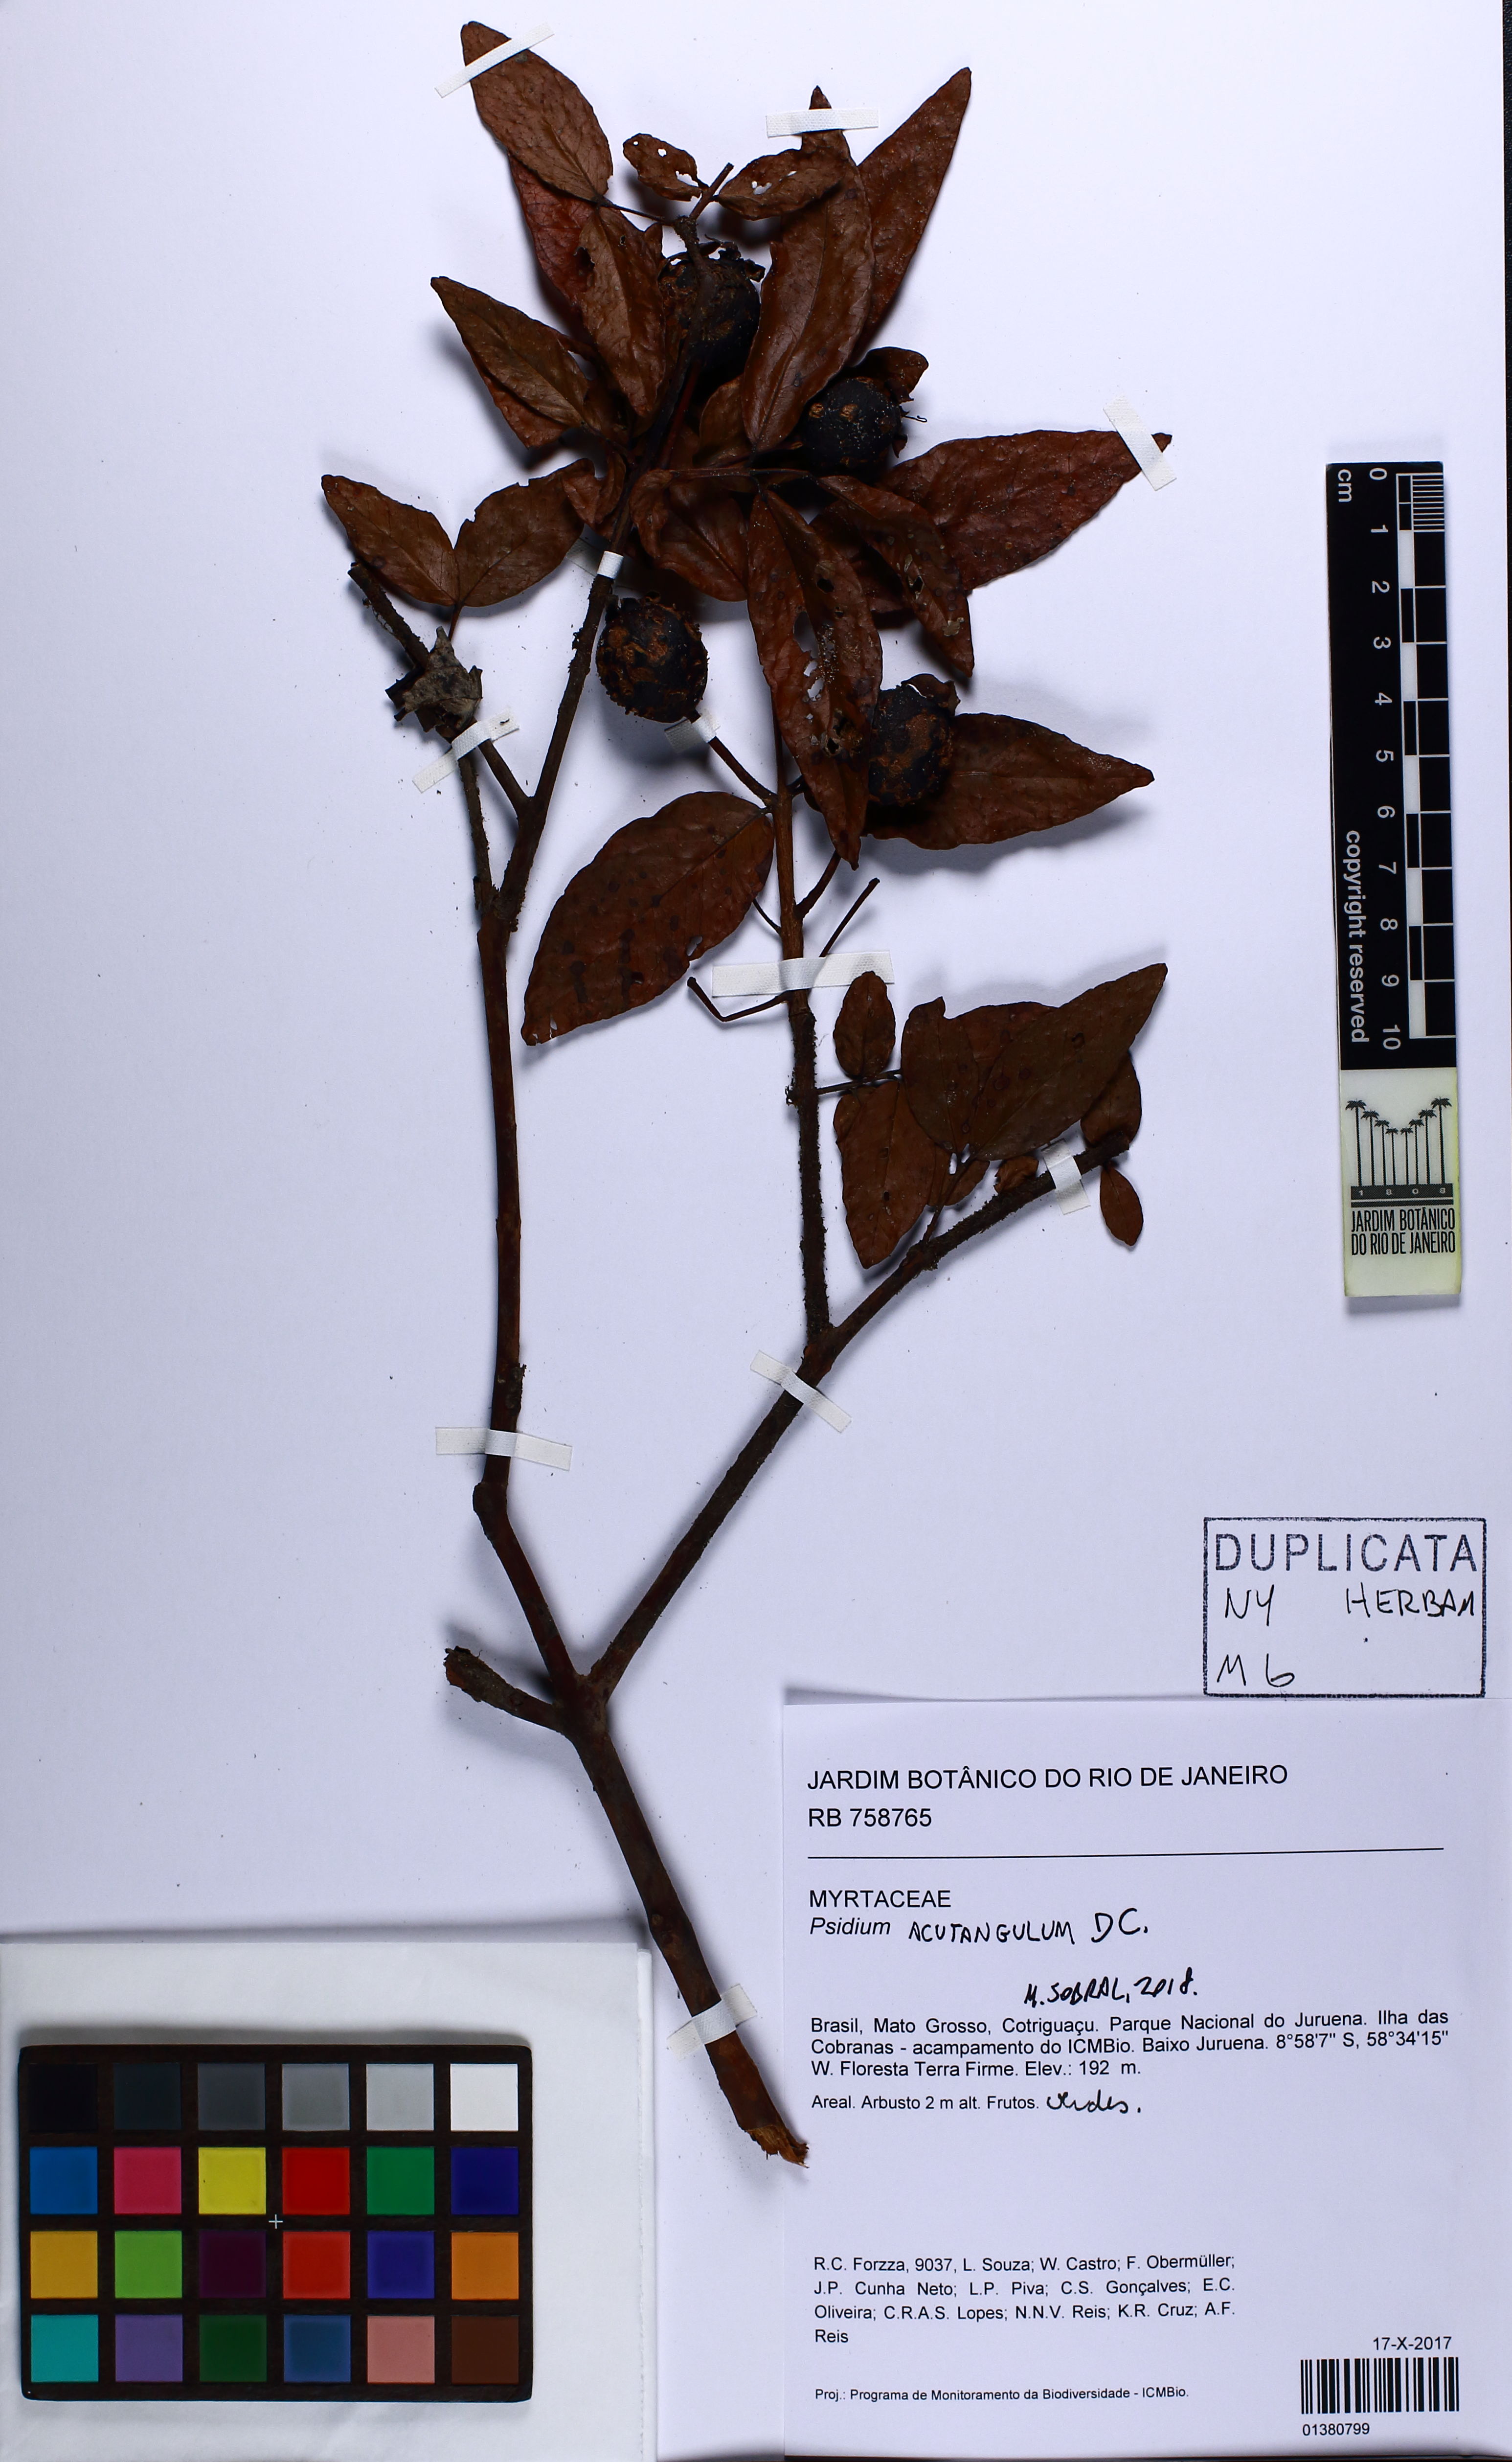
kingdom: Plantae
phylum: Tracheophyta
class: Magnoliopsida
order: Myrtales
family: Myrtaceae
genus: Psidium
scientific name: Psidium acutangulum
